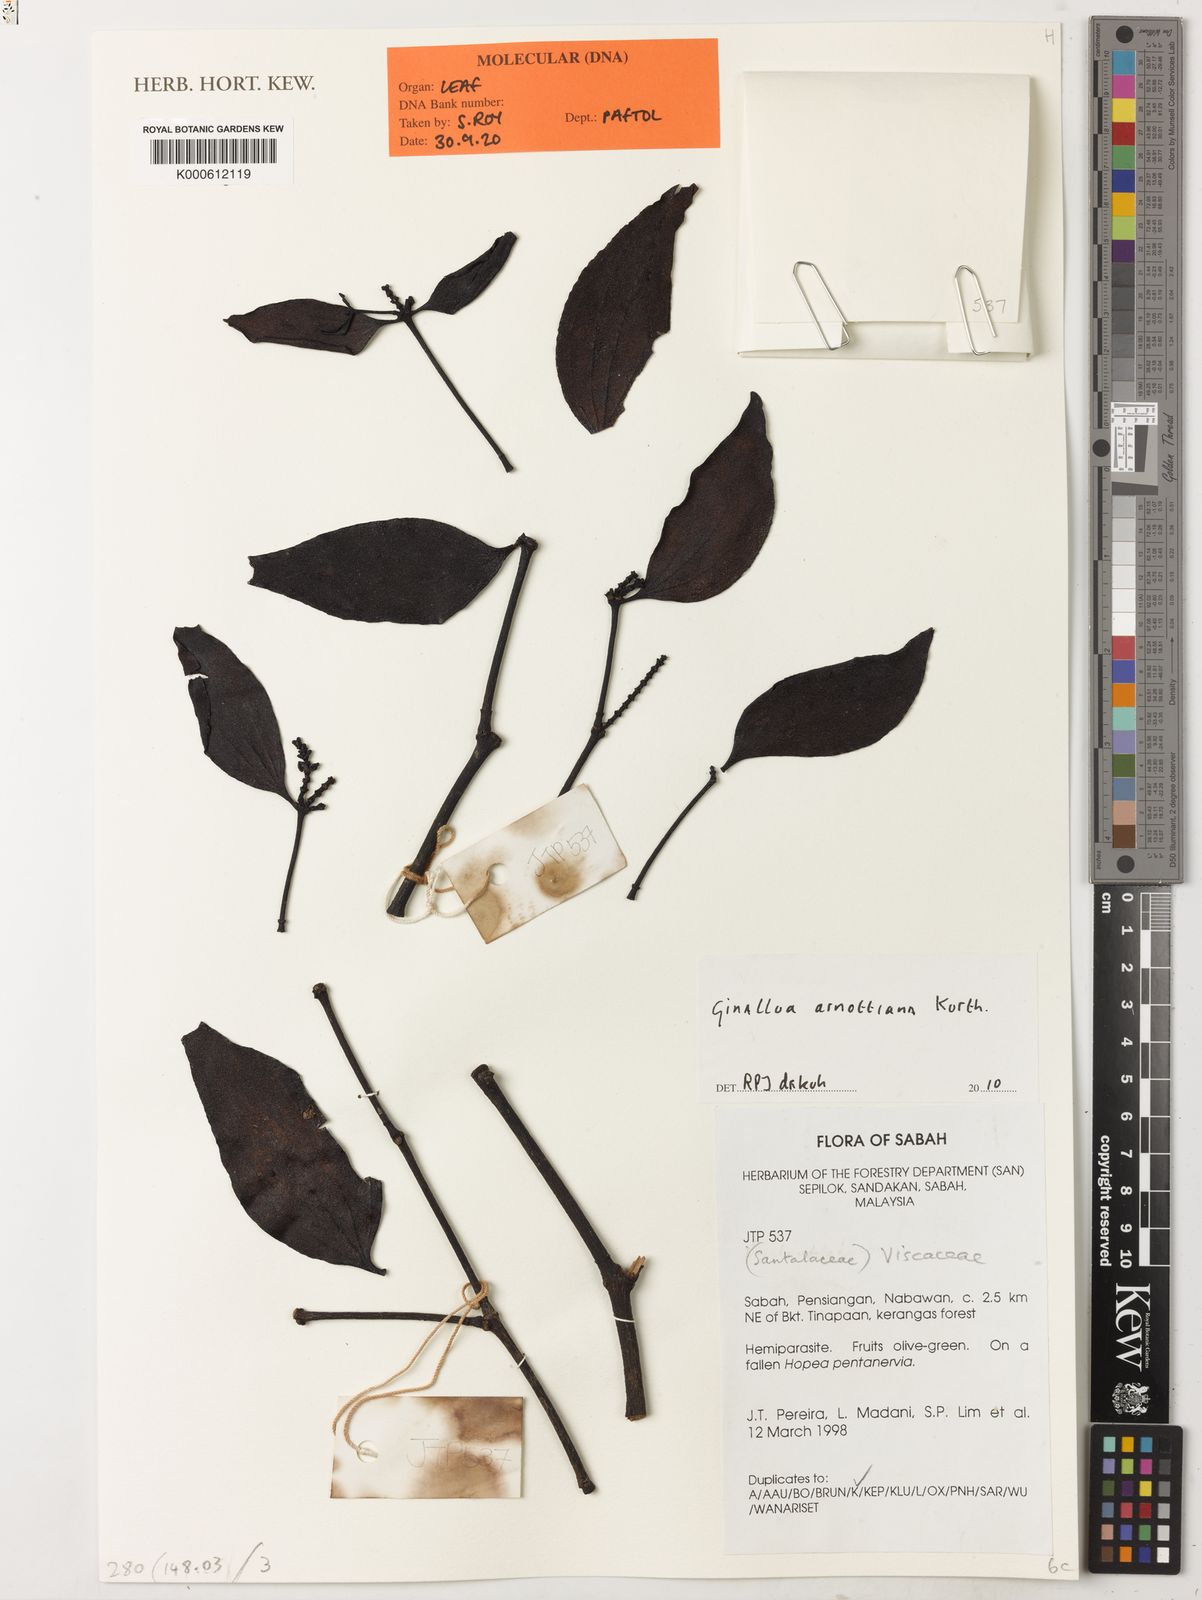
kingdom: Plantae
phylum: Tracheophyta
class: Magnoliopsida
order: Santalales
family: Viscaceae
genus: Ginalloa
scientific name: Ginalloa arnottiana
